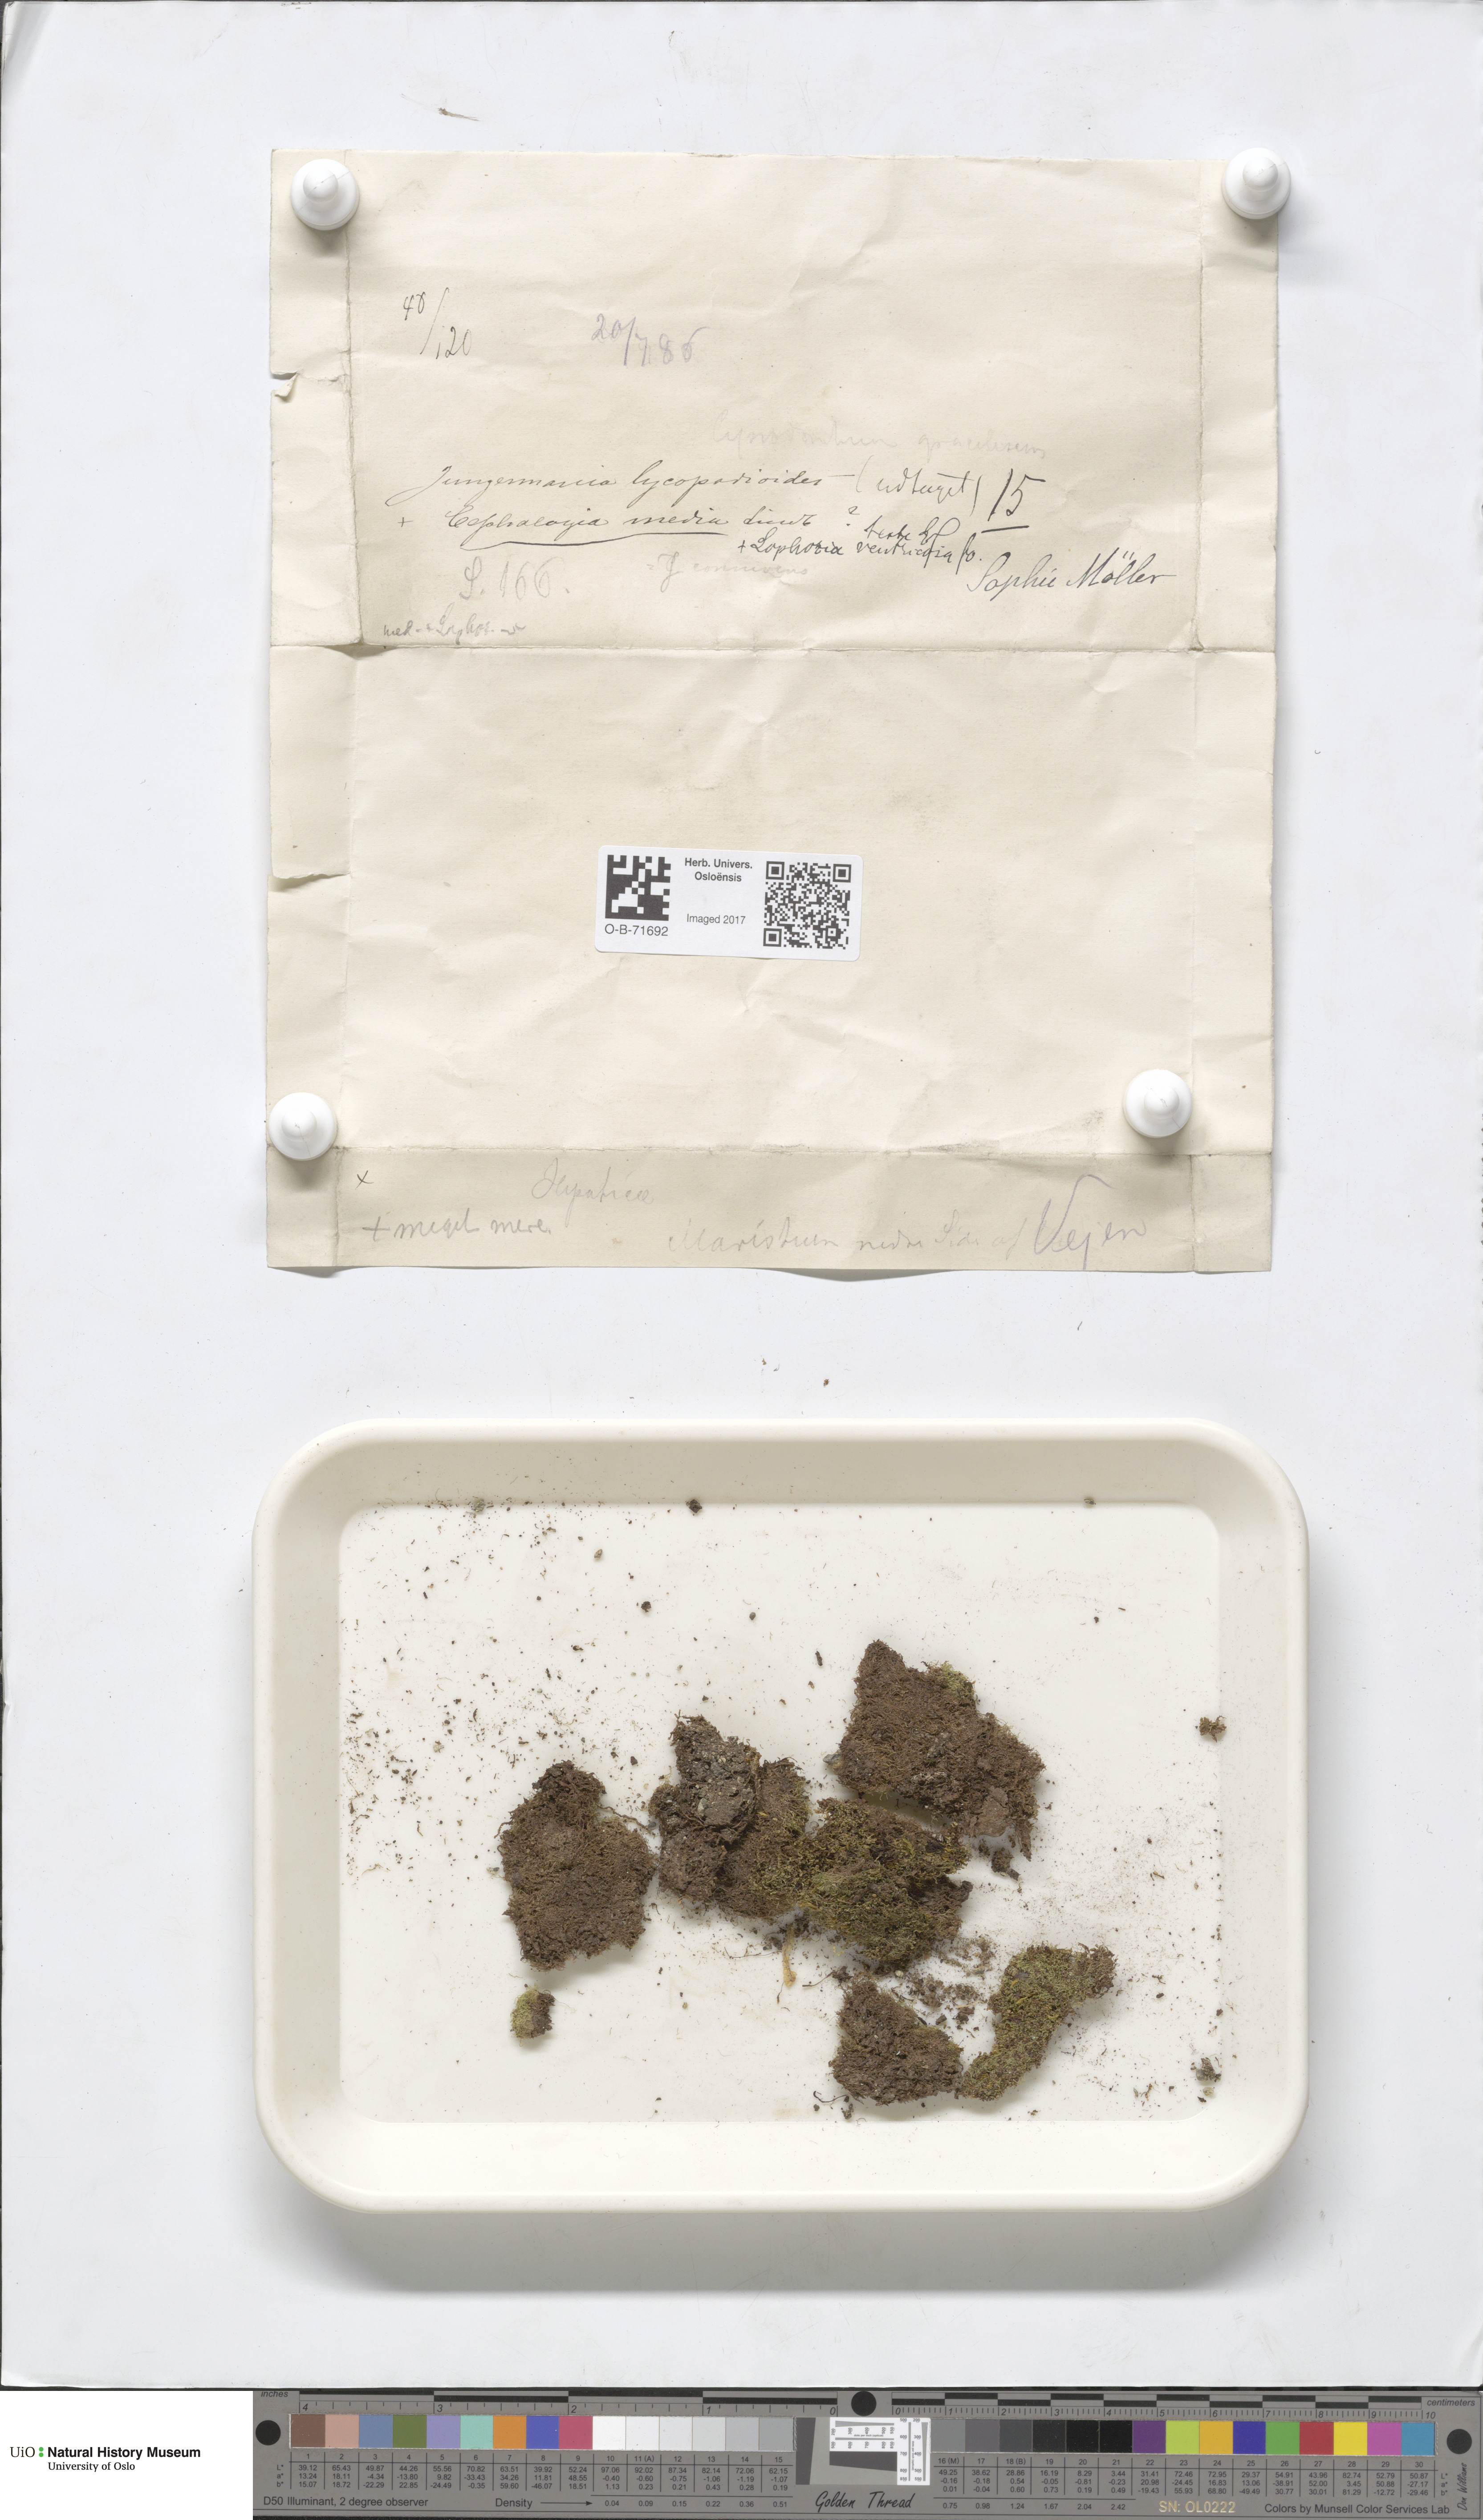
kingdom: Plantae
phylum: Marchantiophyta
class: Jungermanniopsida
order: Jungermanniales
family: Cephaloziaceae
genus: Fuscocephaloziopsis
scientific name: Fuscocephaloziopsis lunulifolia
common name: Moon-leaved pincerwort
